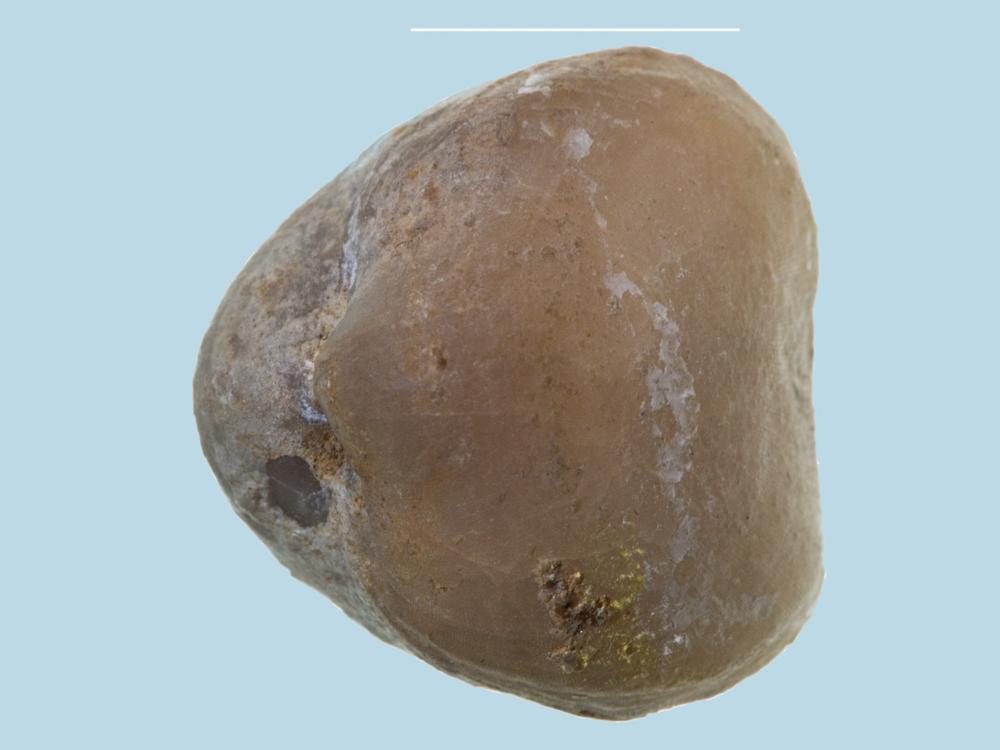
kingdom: Animalia
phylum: Brachiopoda
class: Rhynchonellata
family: Porambonitidae
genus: Porambonites
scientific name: Porambonites
